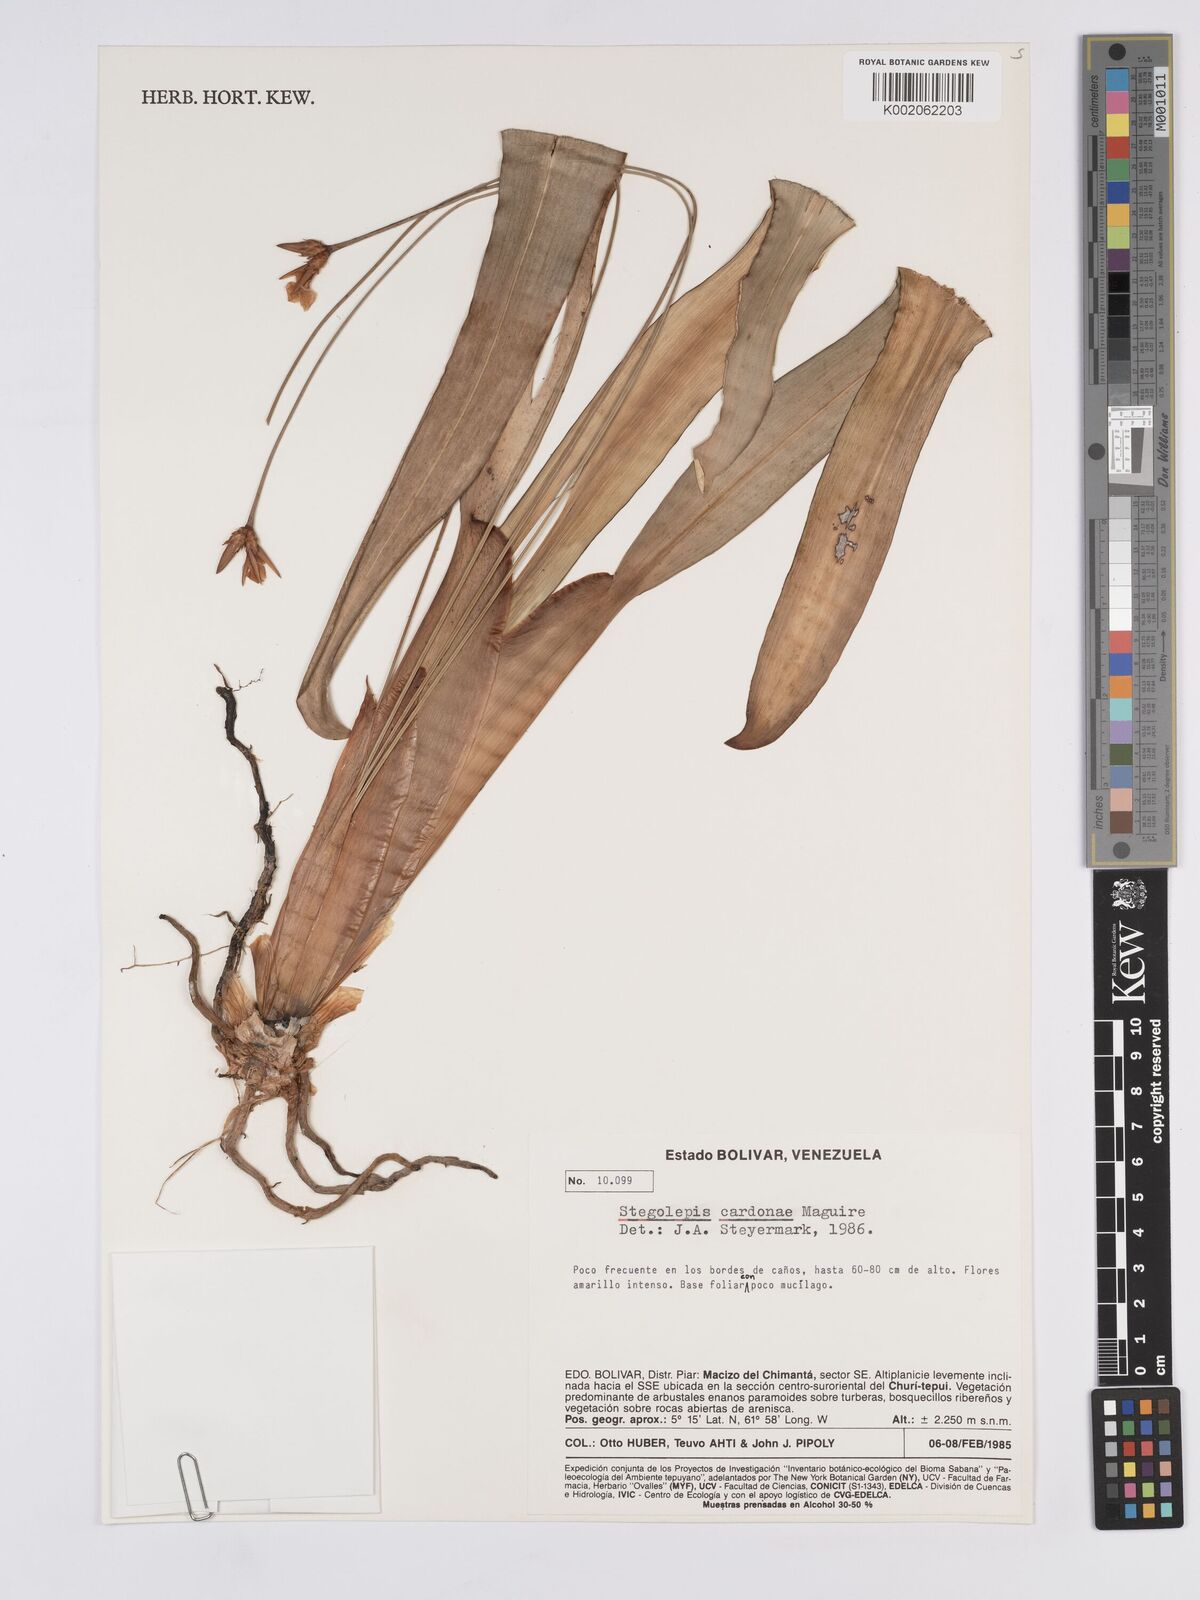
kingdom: Plantae
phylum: Tracheophyta
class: Liliopsida
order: Poales
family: Rapateaceae
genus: Stegolepis
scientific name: Stegolepis cardonae
